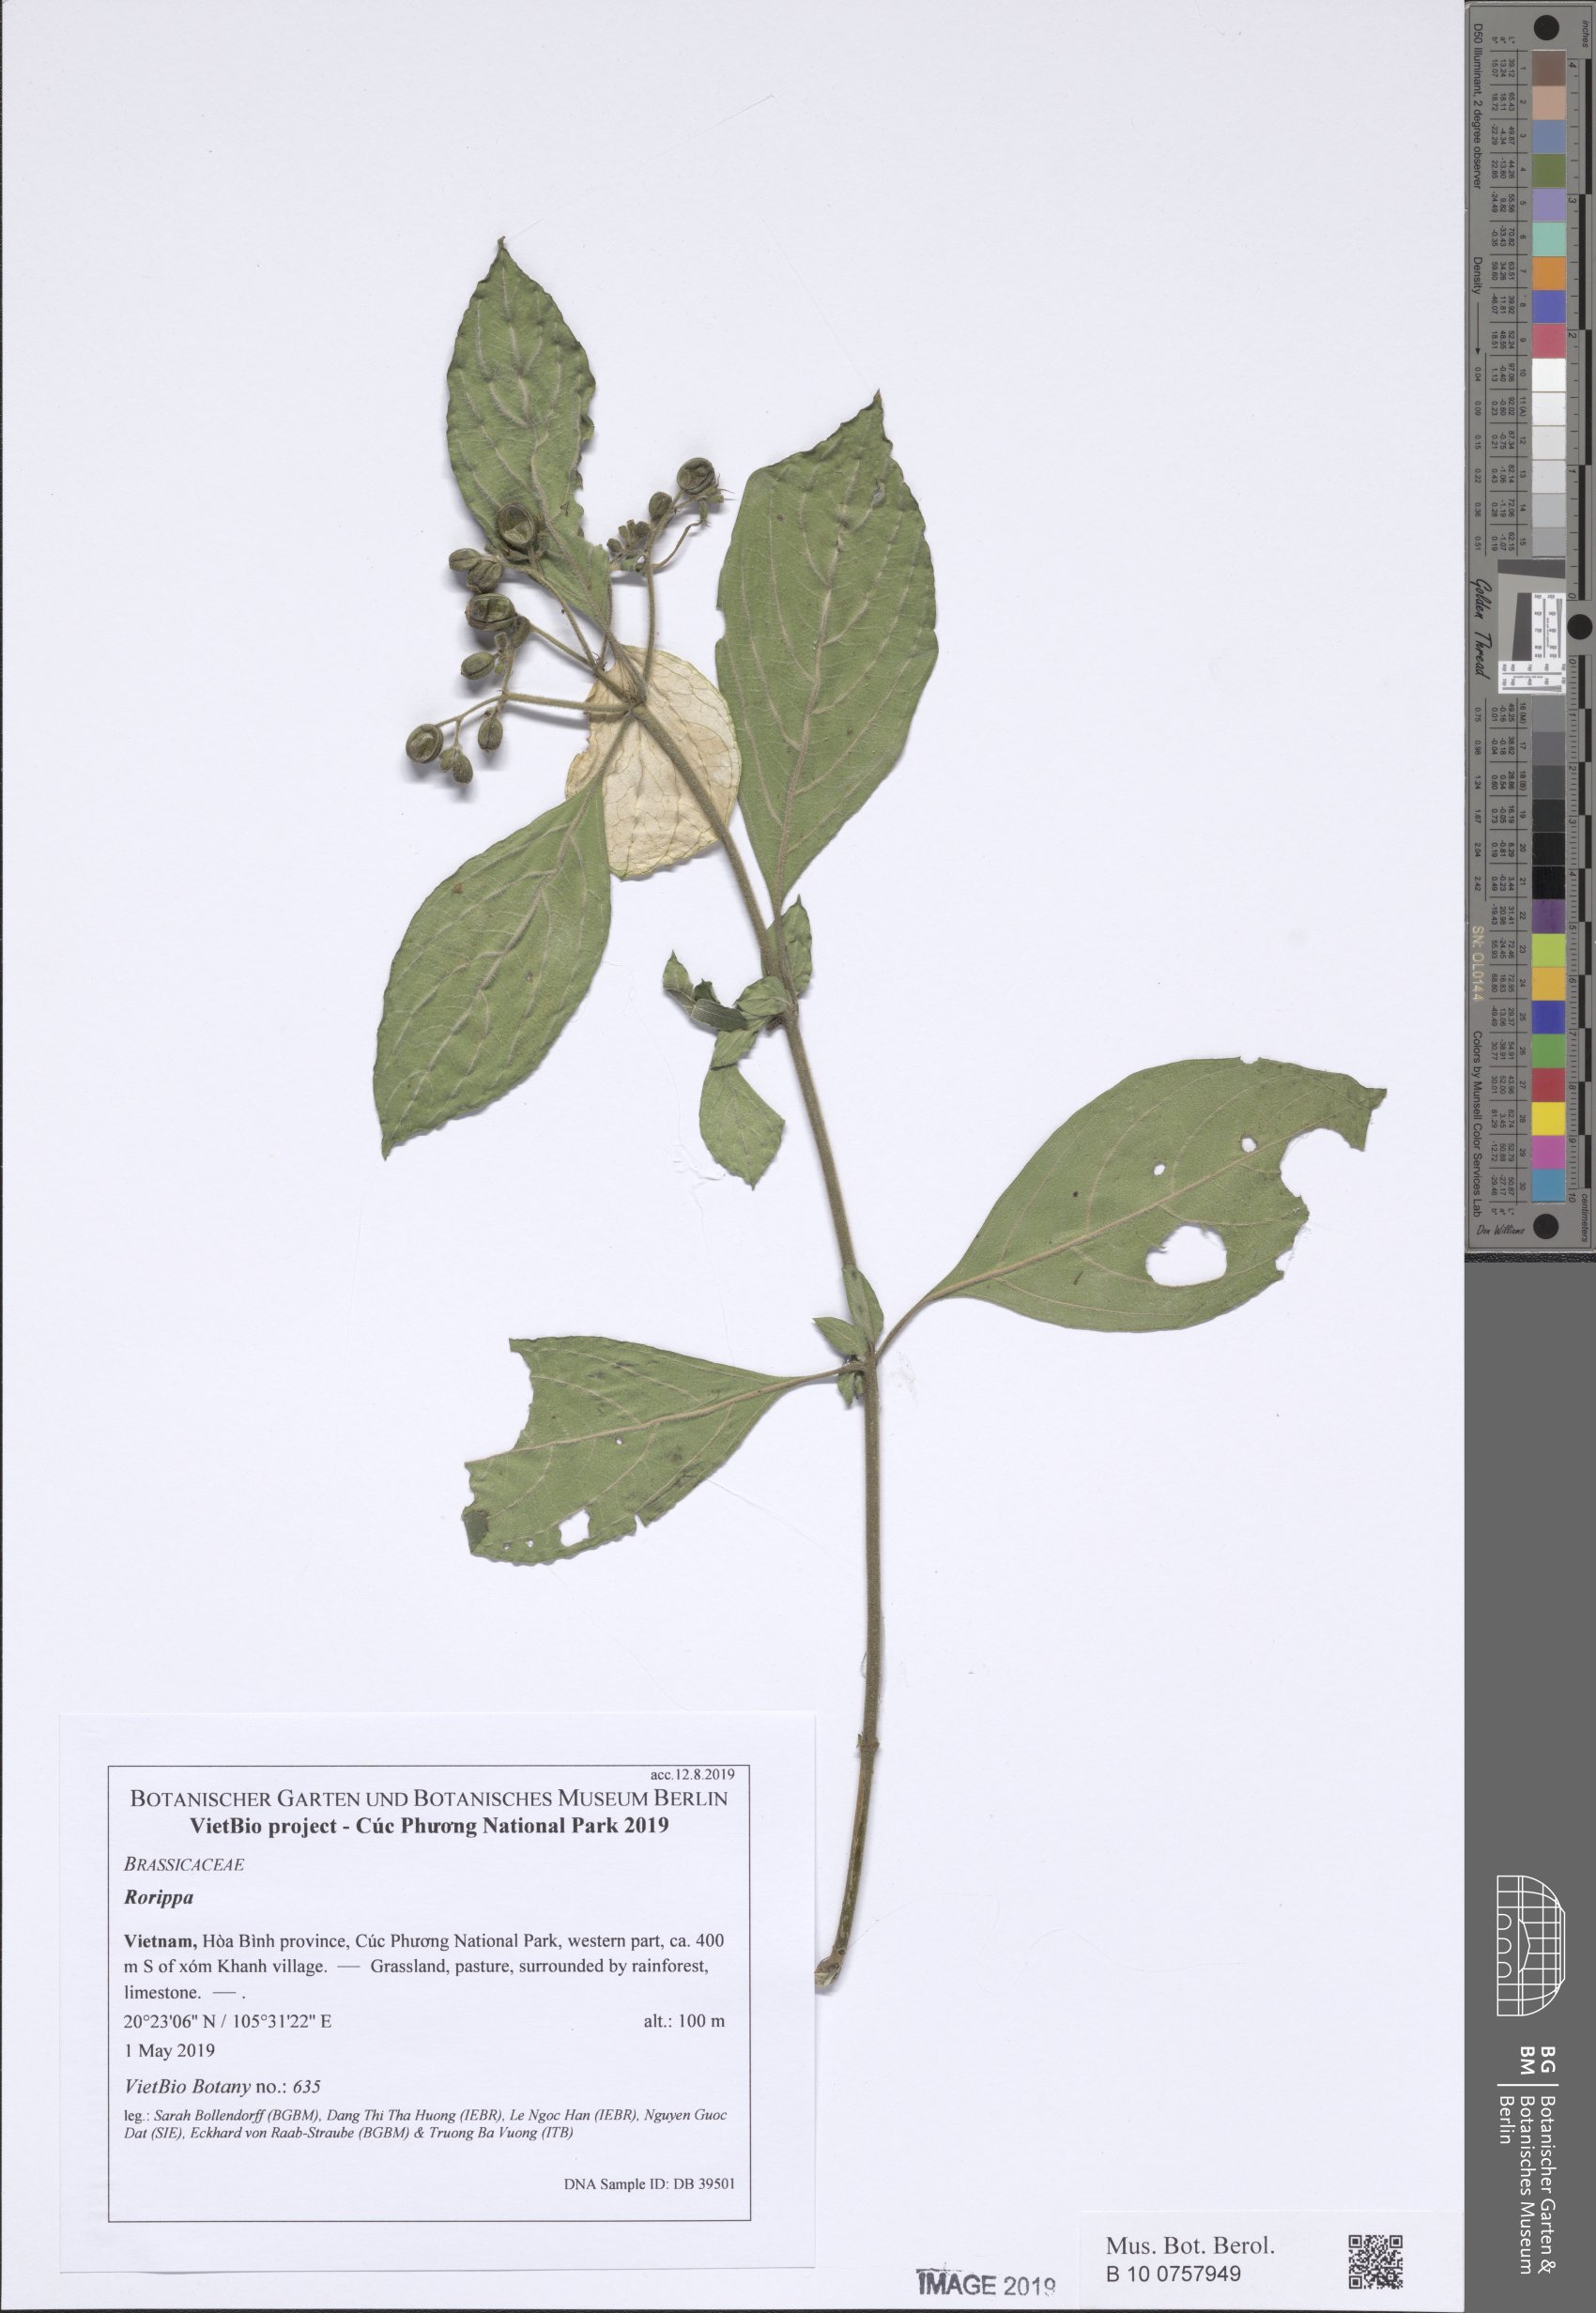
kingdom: Plantae
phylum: Tracheophyta
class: Magnoliopsida
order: Gentianales
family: Rubiaceae
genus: Mussaenda
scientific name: Mussaenda
